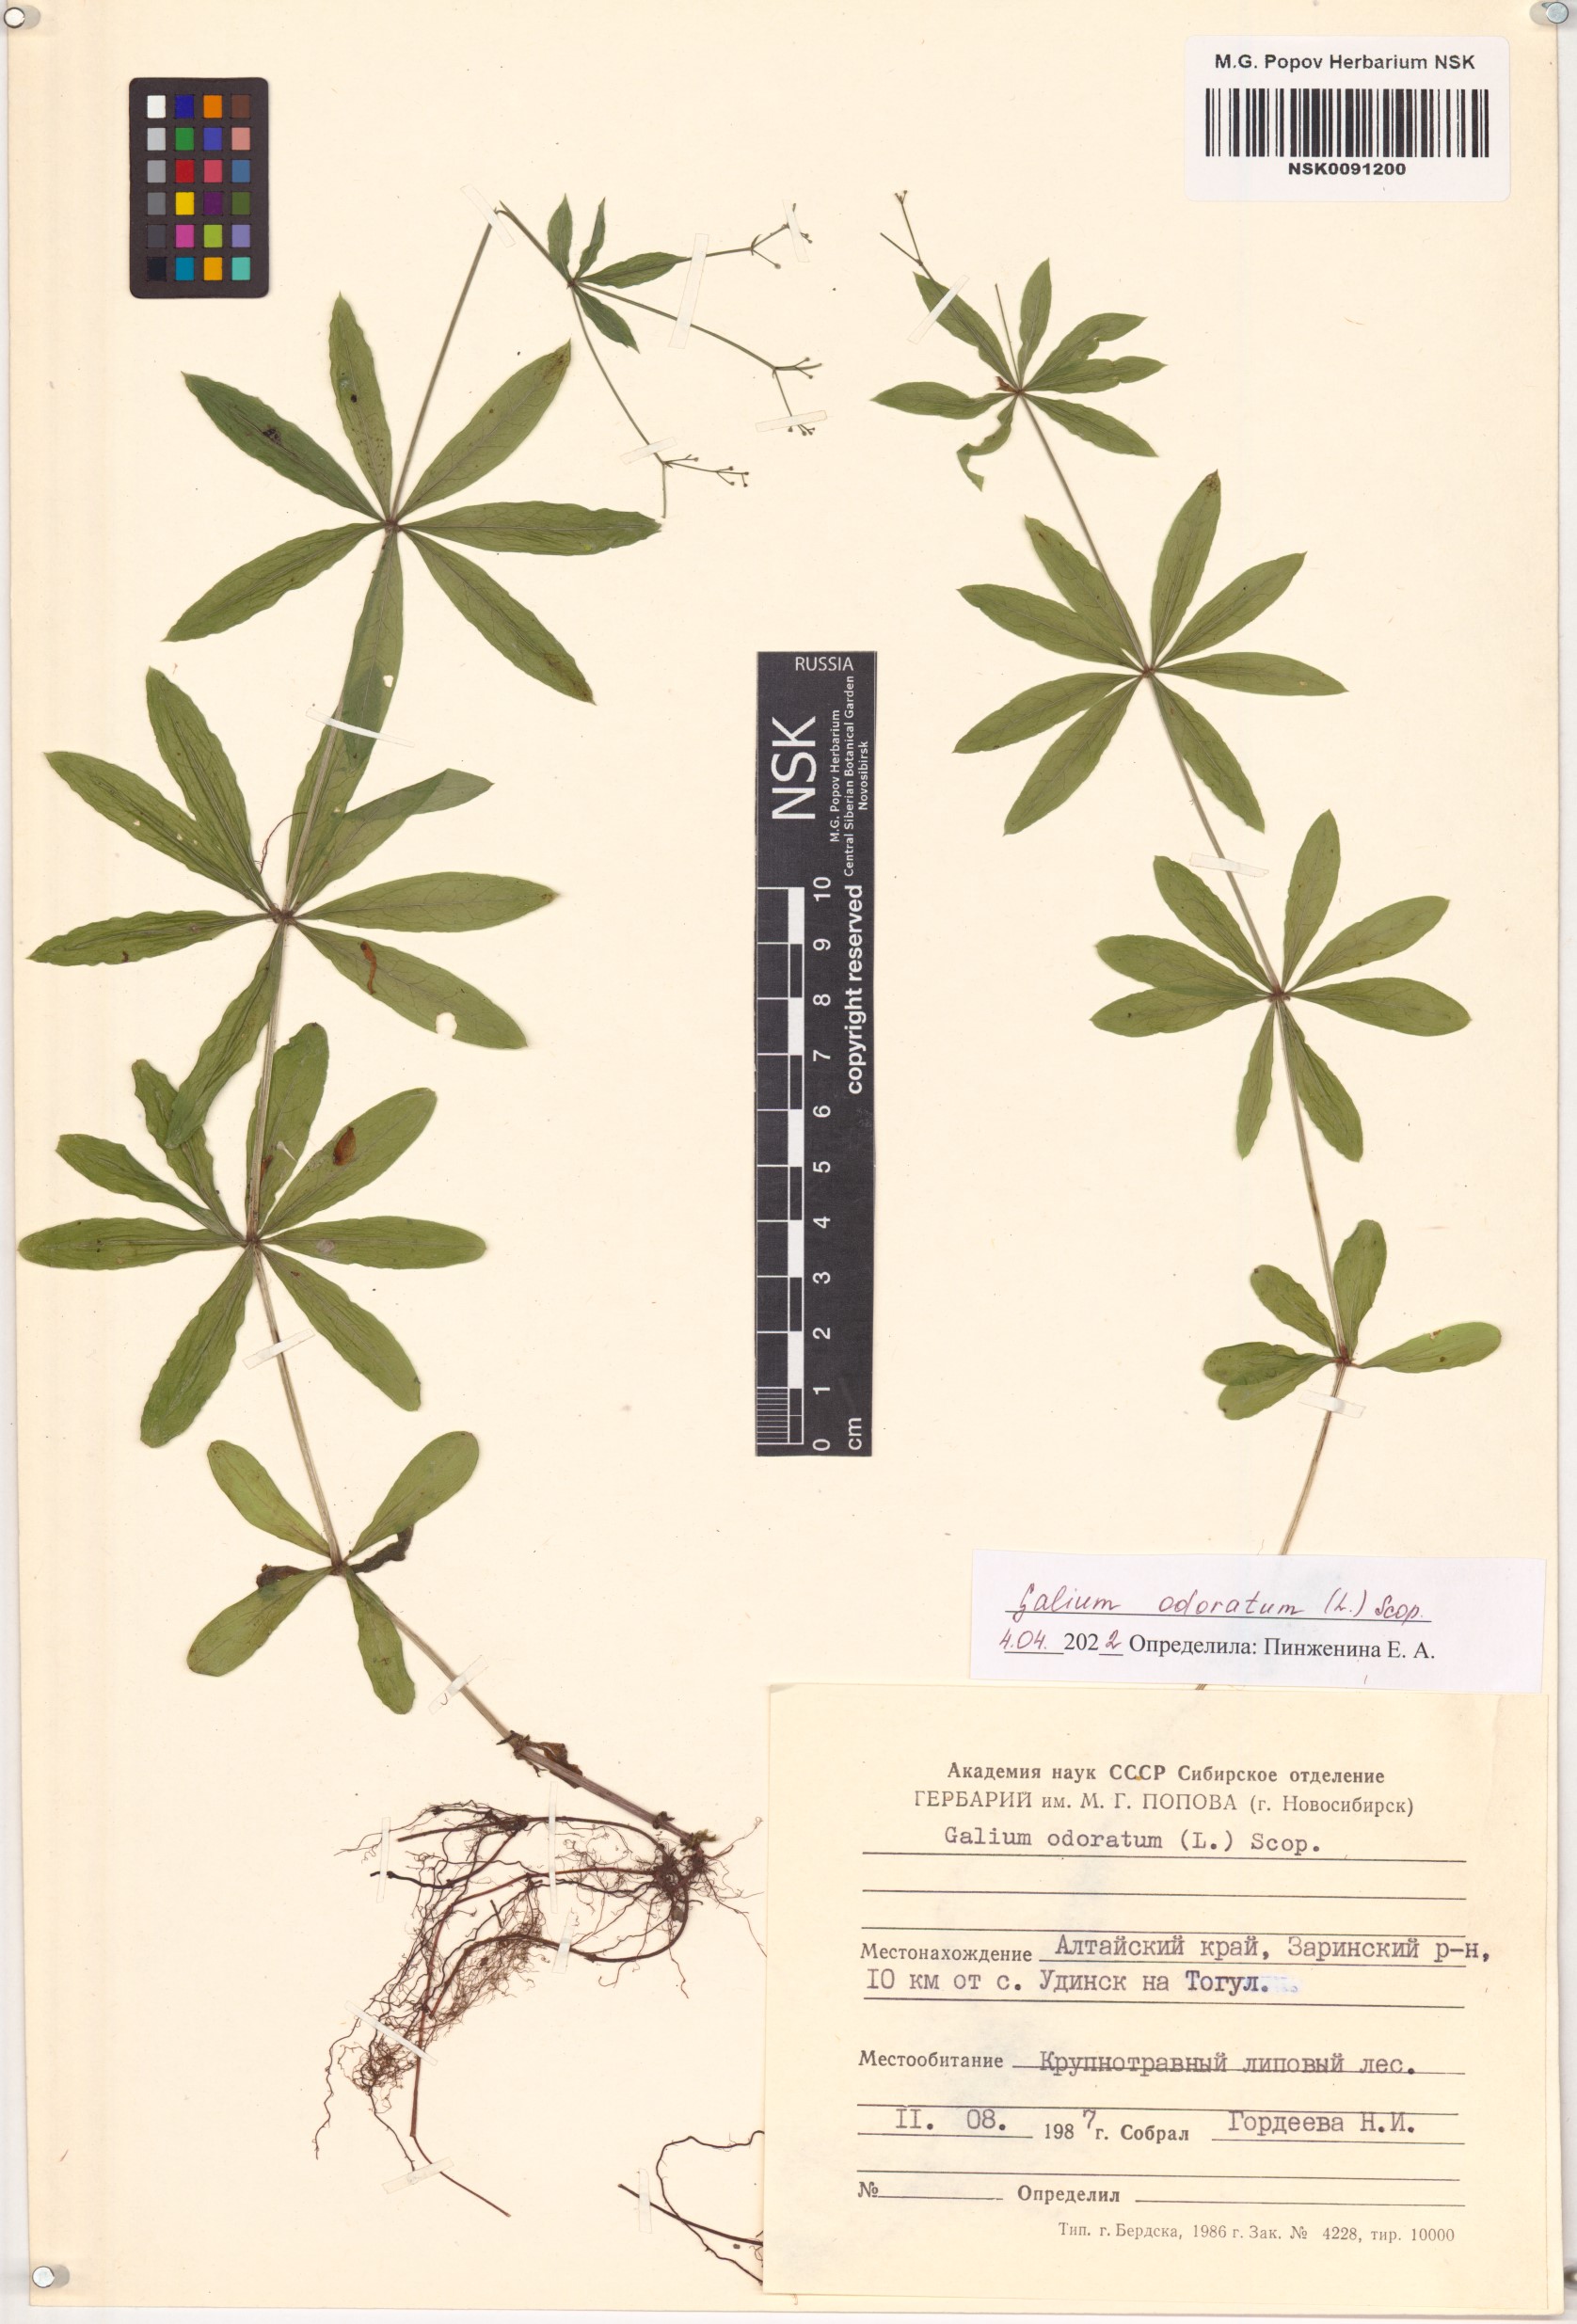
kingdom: Plantae
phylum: Tracheophyta
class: Magnoliopsida
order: Gentianales
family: Rubiaceae
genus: Galium
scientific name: Galium odoratum
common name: Sweet woodruff
